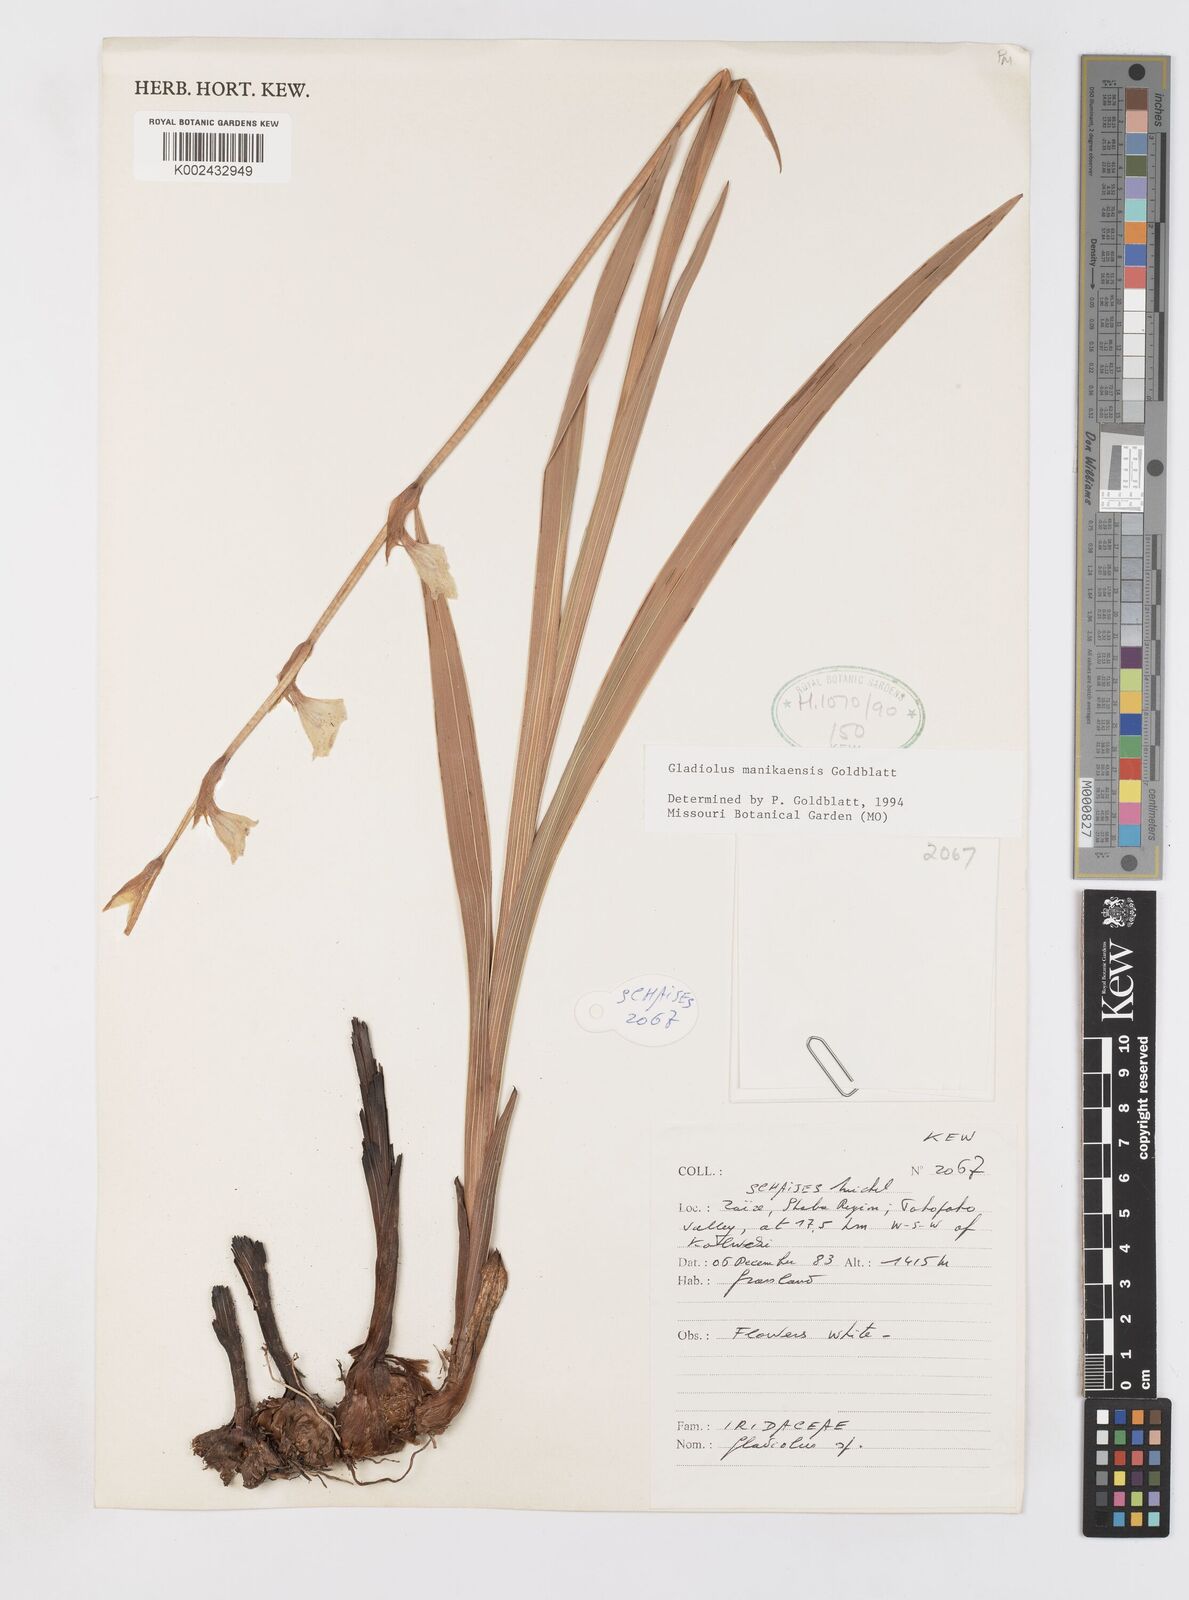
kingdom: Plantae
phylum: Tracheophyta
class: Liliopsida
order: Asparagales
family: Iridaceae
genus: Gladiolus
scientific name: Gladiolus manikaensis
